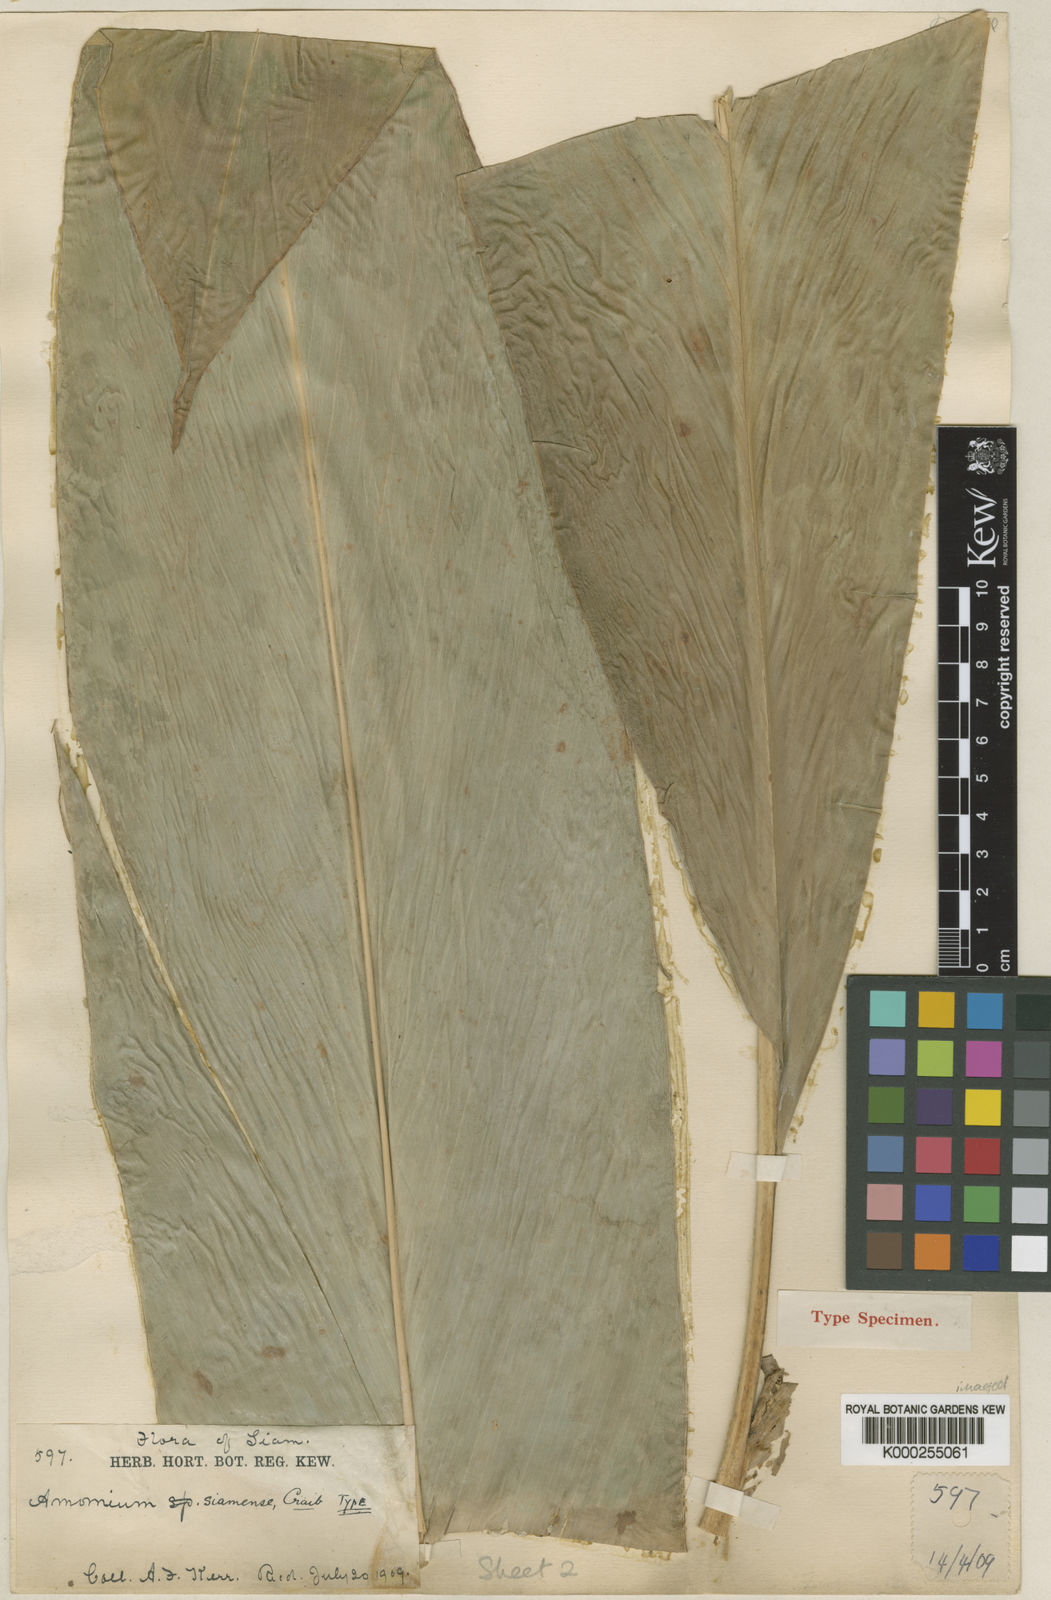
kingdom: Plantae
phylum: Tracheophyta
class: Liliopsida
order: Zingiberales
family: Zingiberaceae
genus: Amomum
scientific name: Amomum siamense
